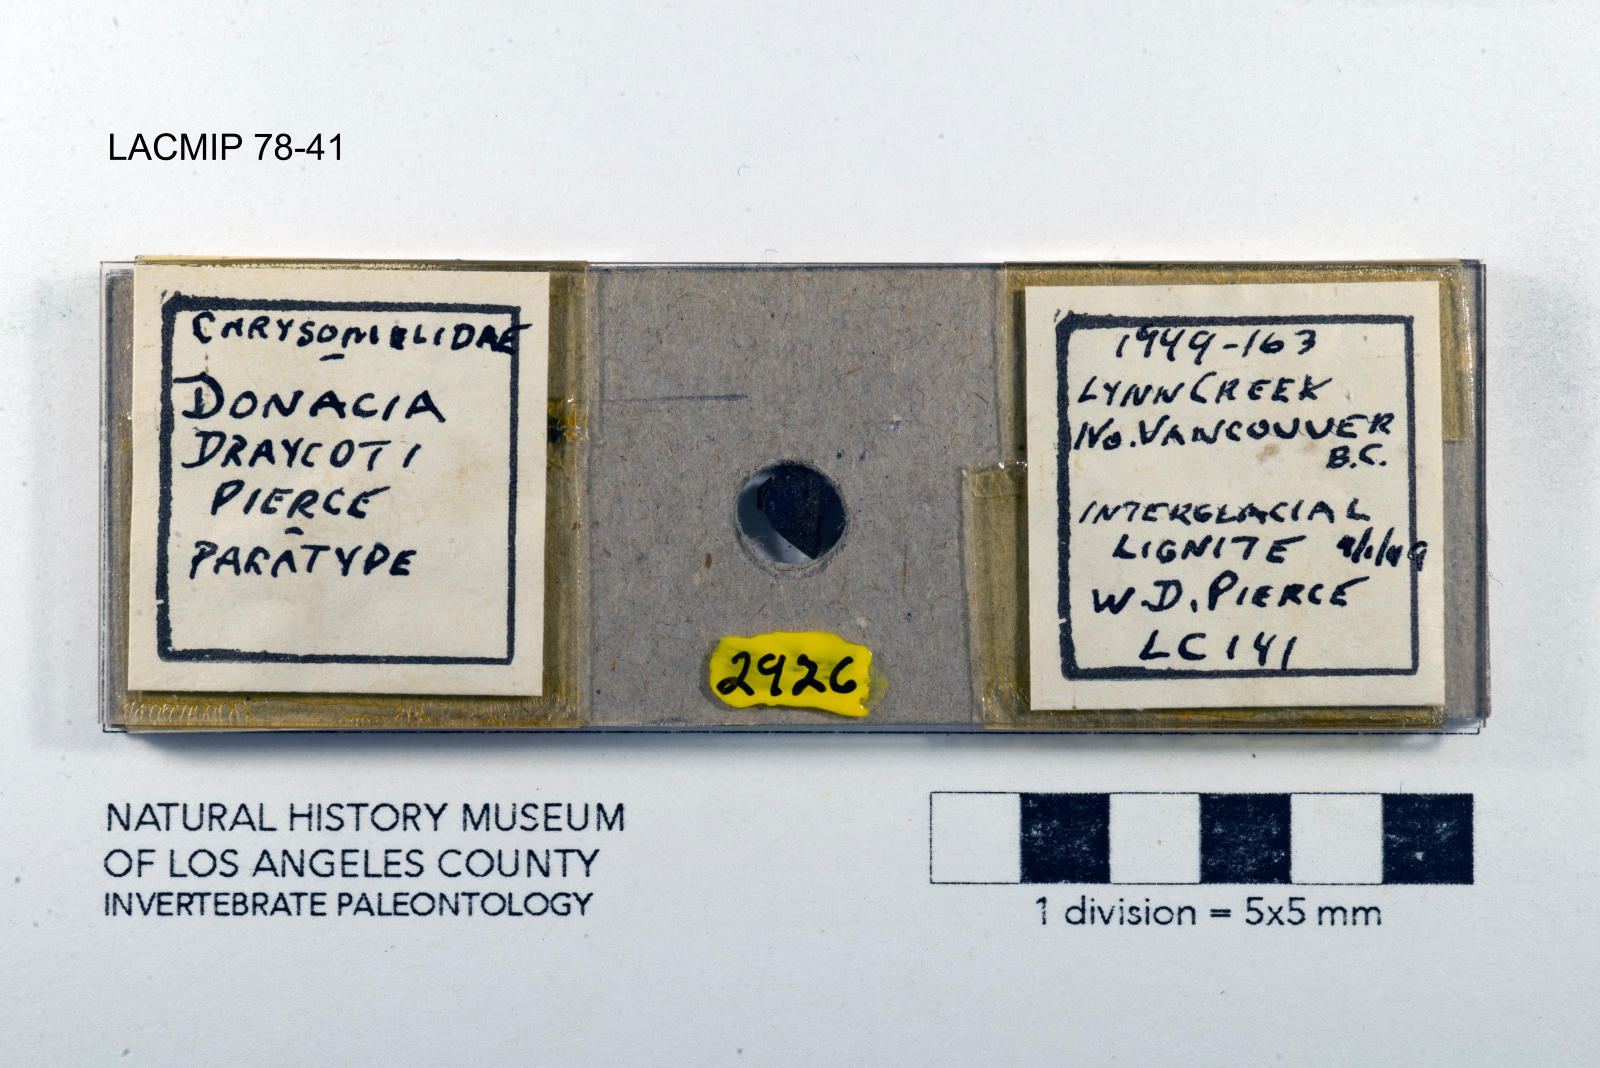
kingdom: Animalia
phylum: Arthropoda
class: Insecta
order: Coleoptera
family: Chrysomelidae
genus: Donacia
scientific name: Donacia draycoti
